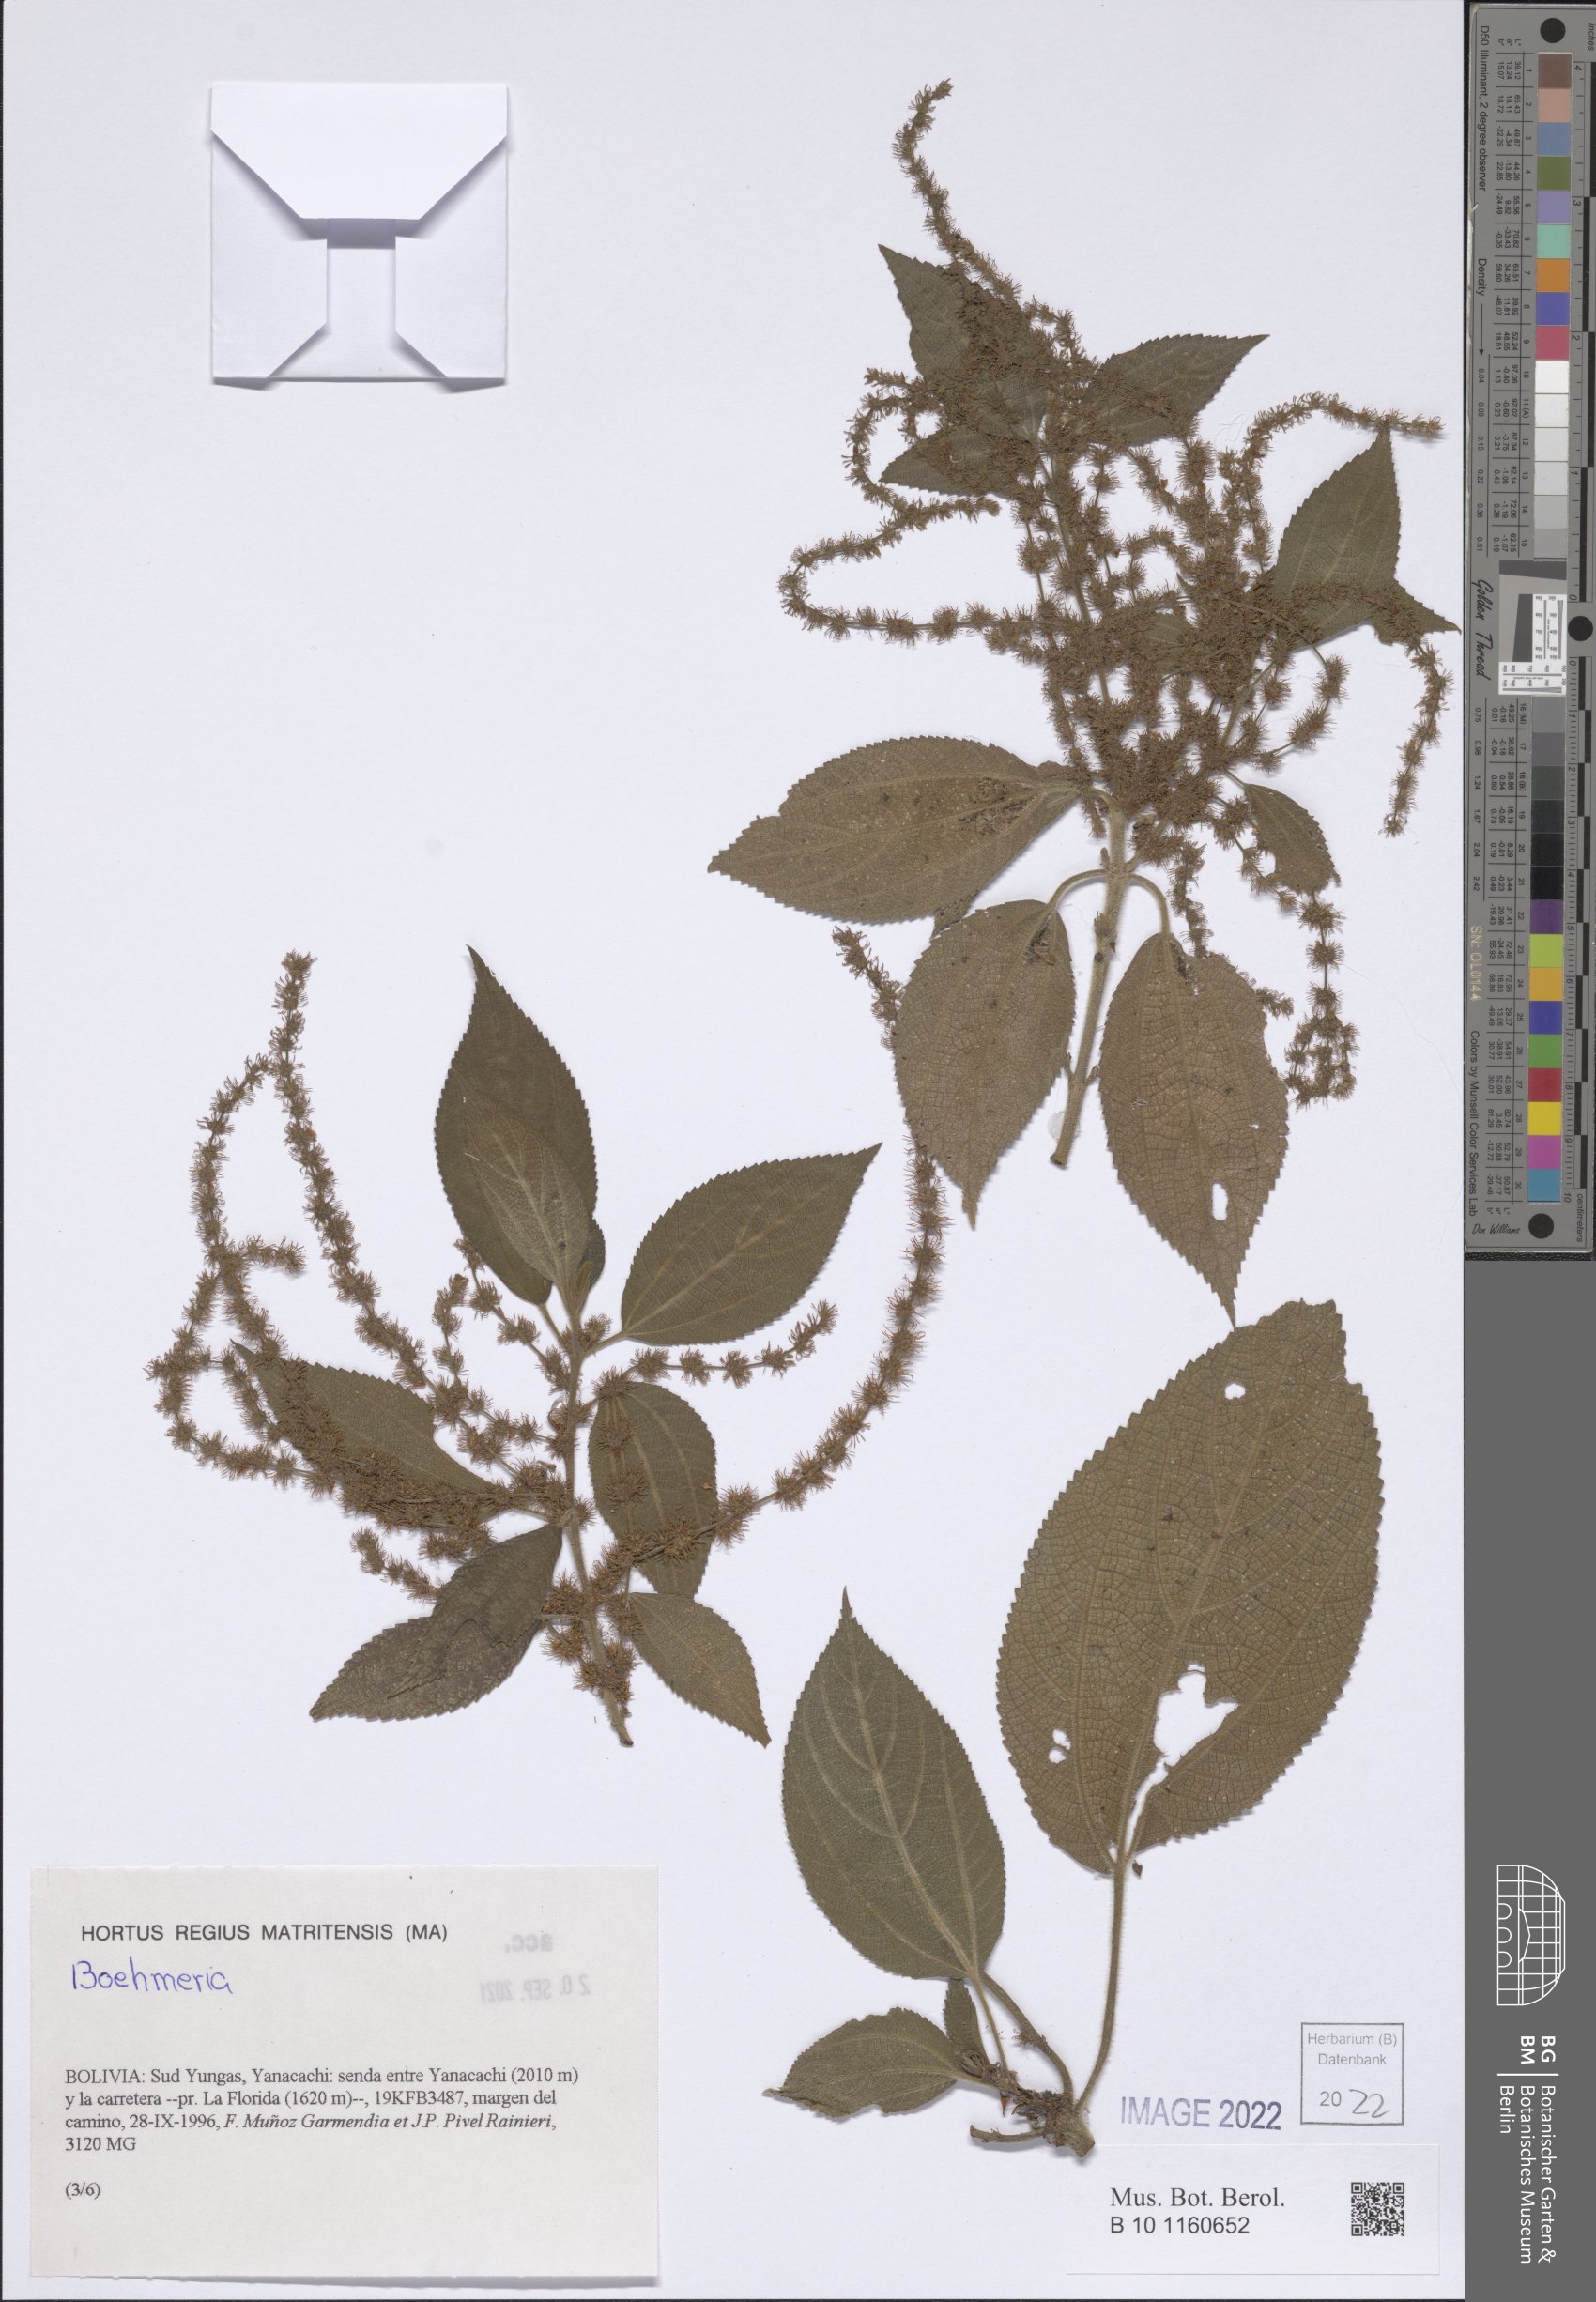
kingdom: Plantae
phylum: Tracheophyta
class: Magnoliopsida
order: Rosales
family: Urticaceae
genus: Boehmeria
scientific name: Boehmeria
